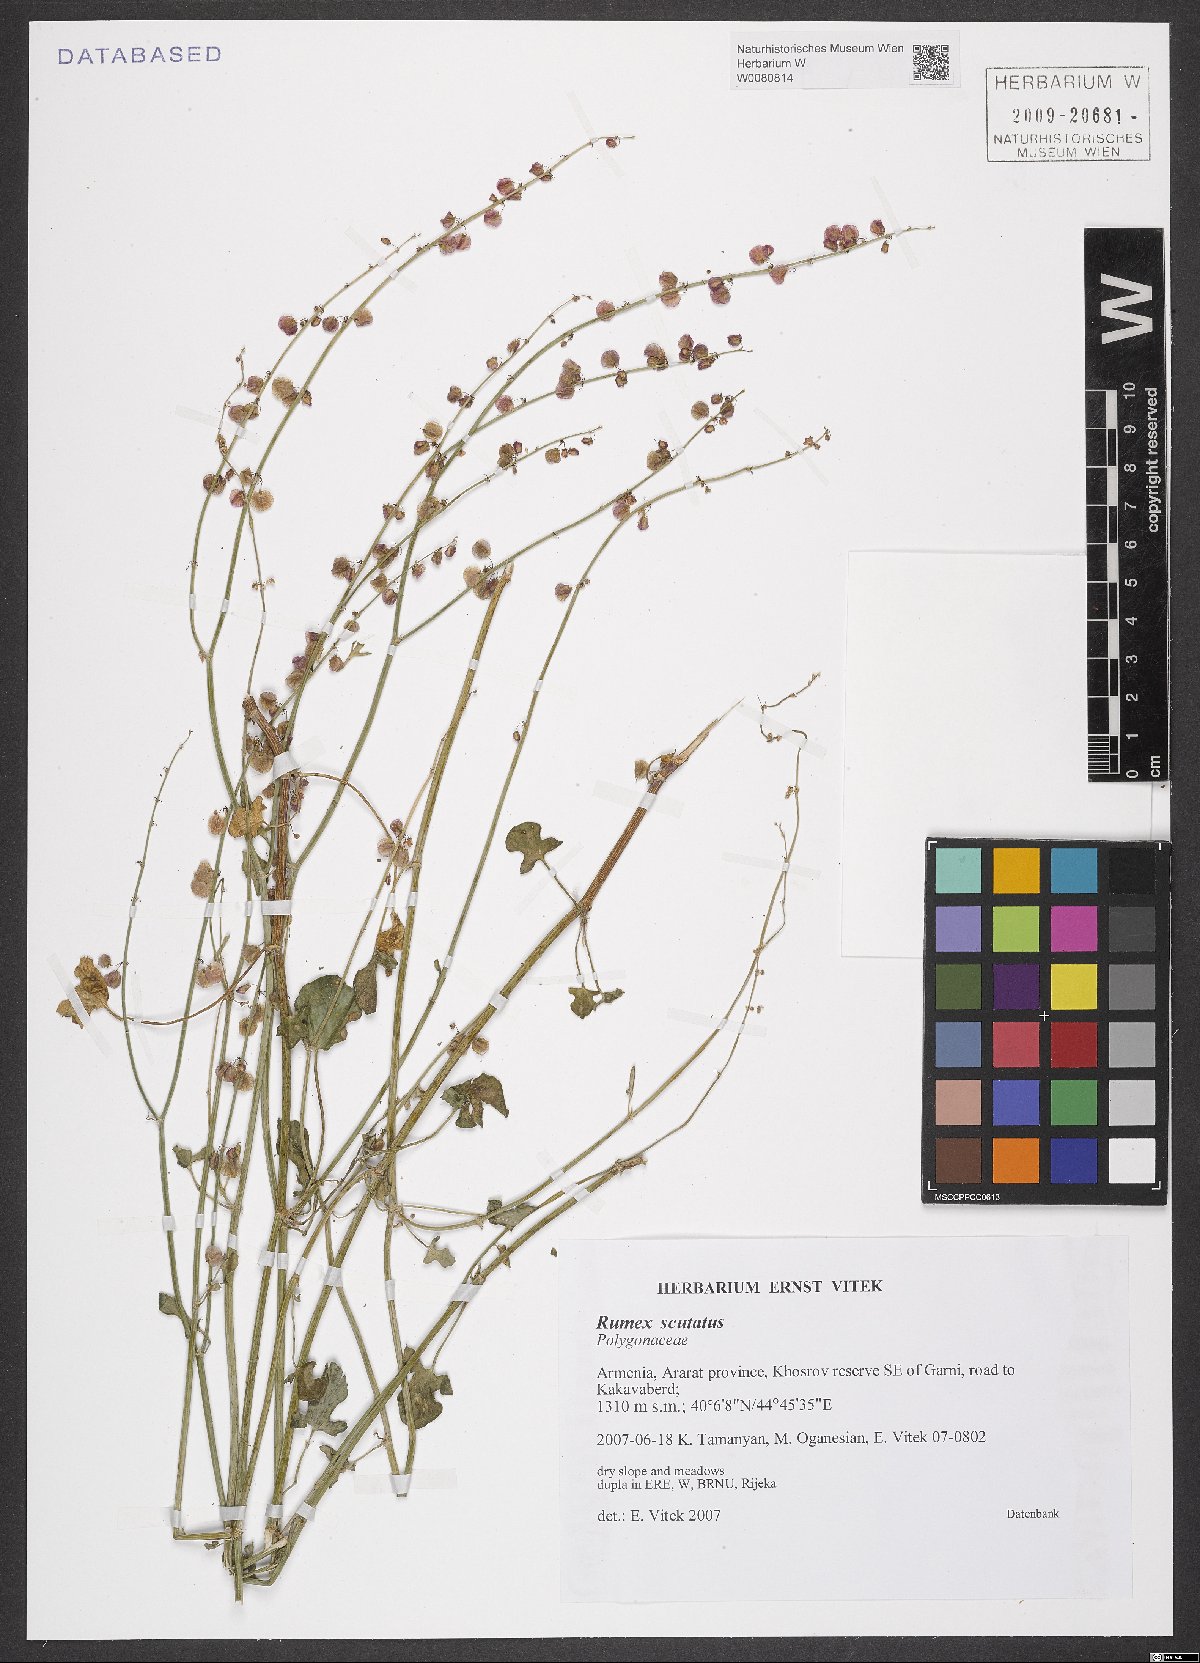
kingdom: Plantae
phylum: Tracheophyta
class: Magnoliopsida
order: Caryophyllales
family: Polygonaceae
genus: Rumex
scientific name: Rumex scutatus
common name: French sorrel
